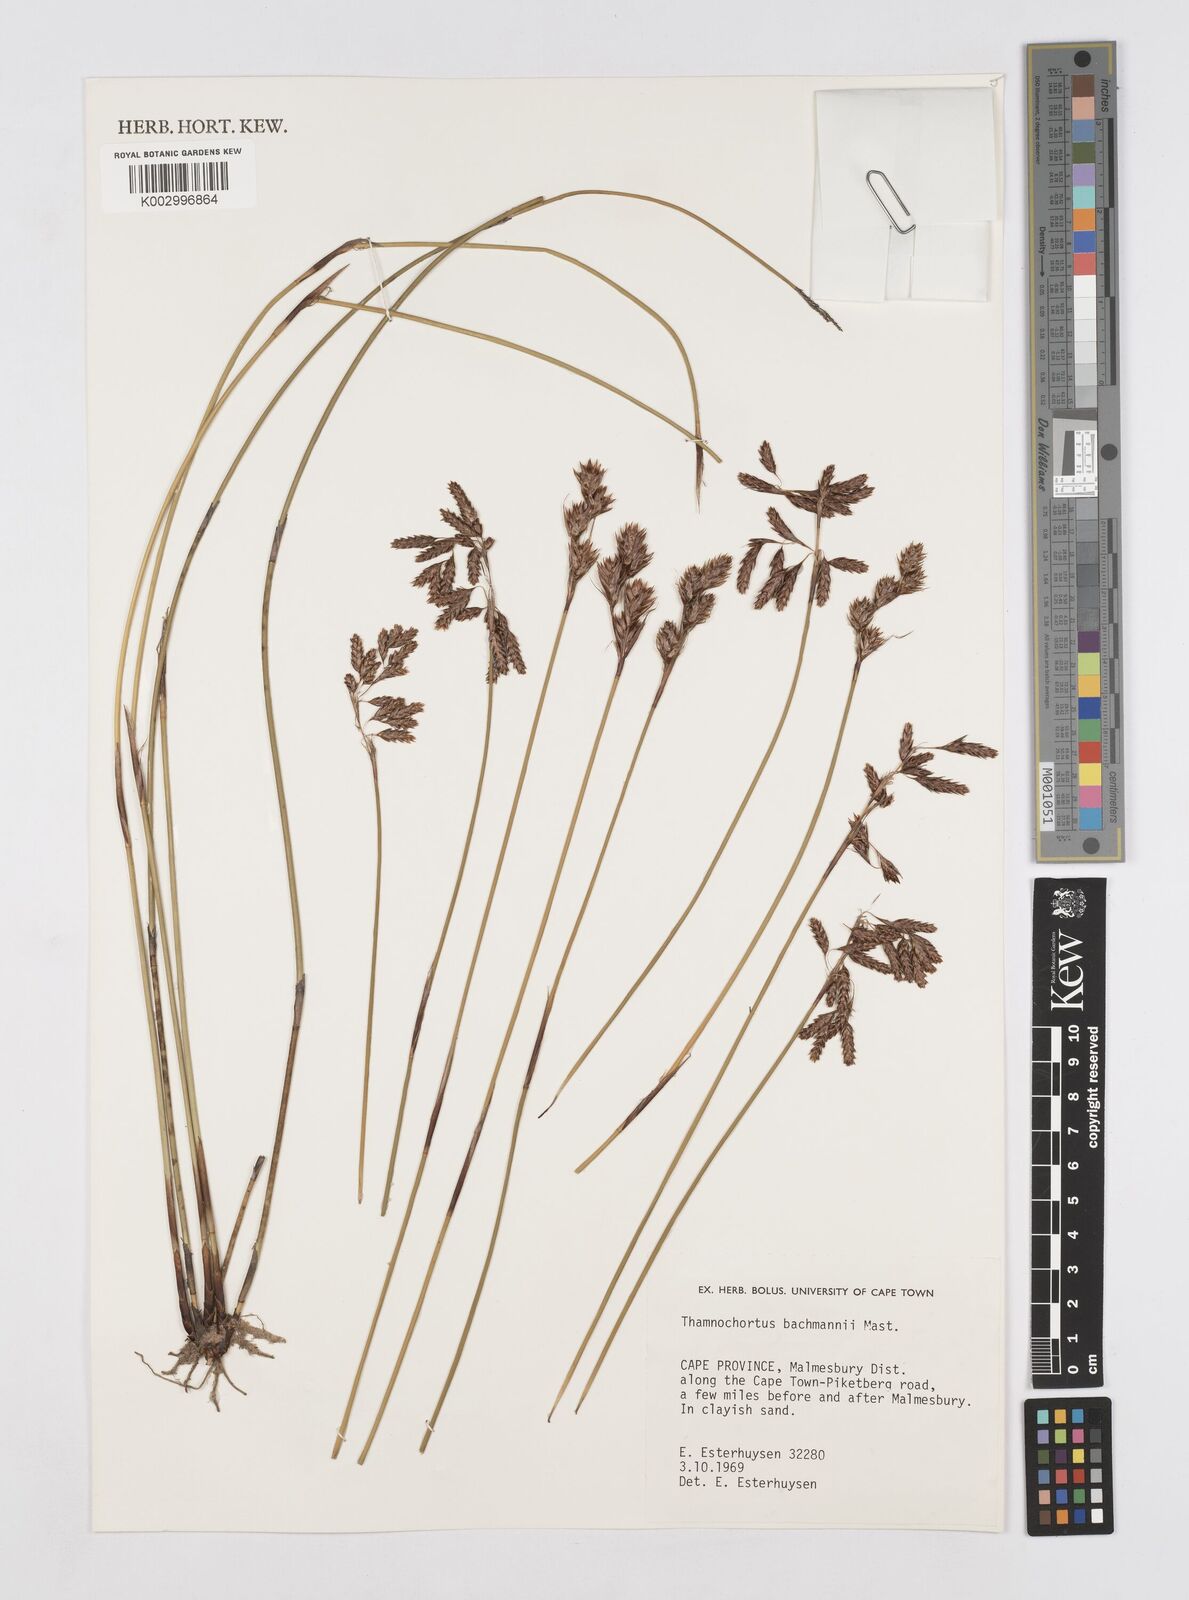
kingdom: Plantae
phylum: Tracheophyta
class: Liliopsida
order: Poales
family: Restionaceae
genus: Thamnochortus
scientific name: Thamnochortus bachmannii
